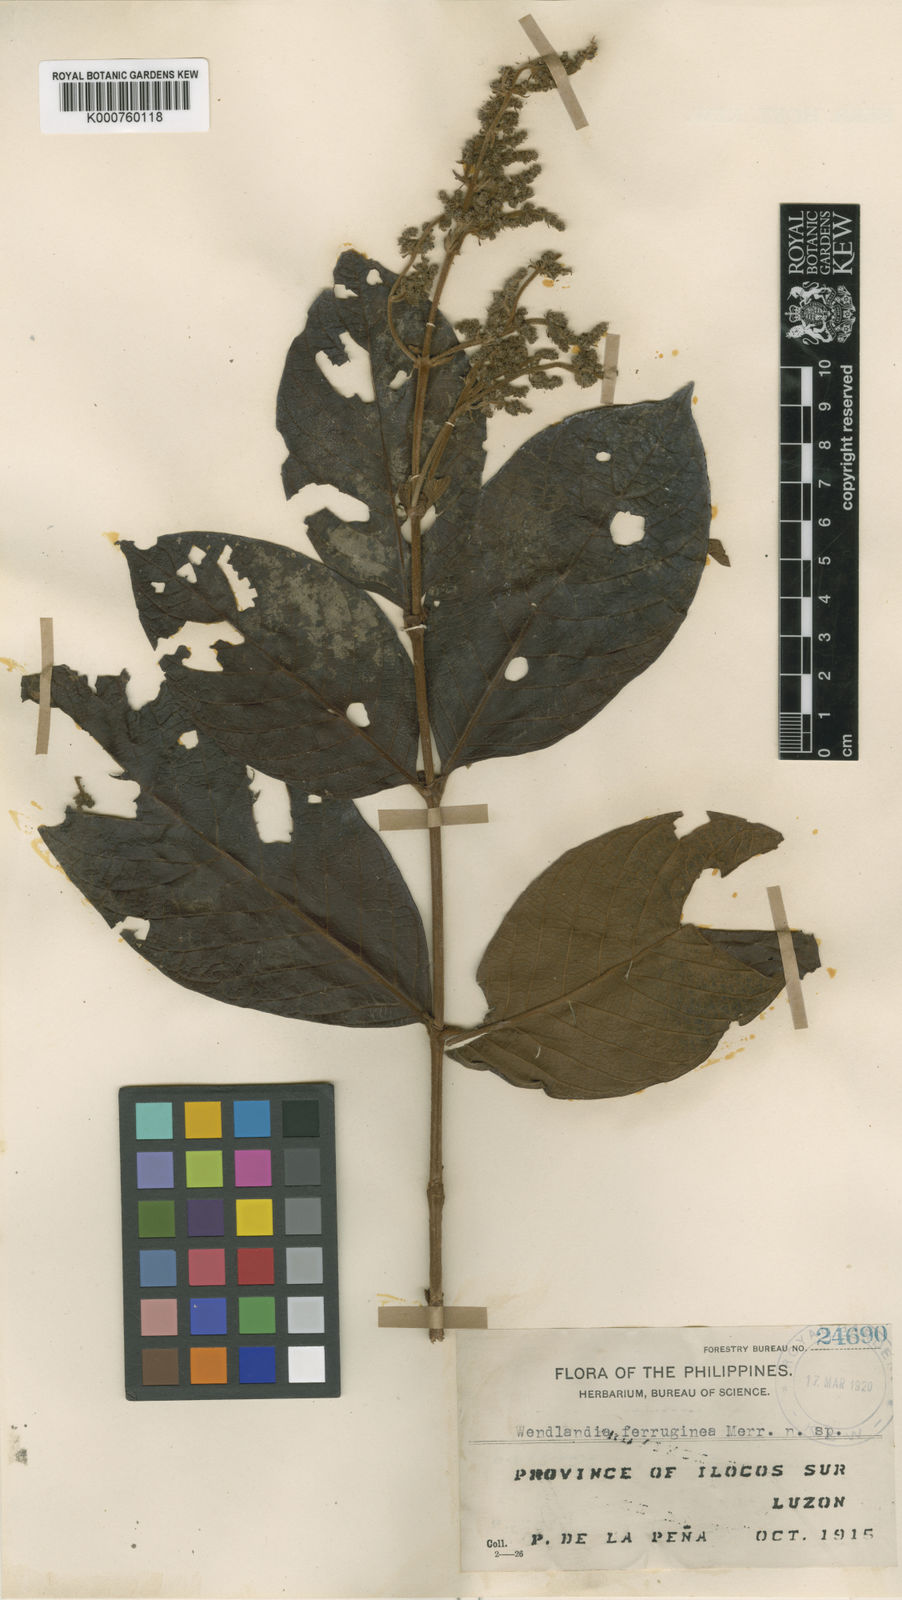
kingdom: Plantae
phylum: Tracheophyta
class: Magnoliopsida
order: Gentianales
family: Rubiaceae
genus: Wendlandia
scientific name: Wendlandia
